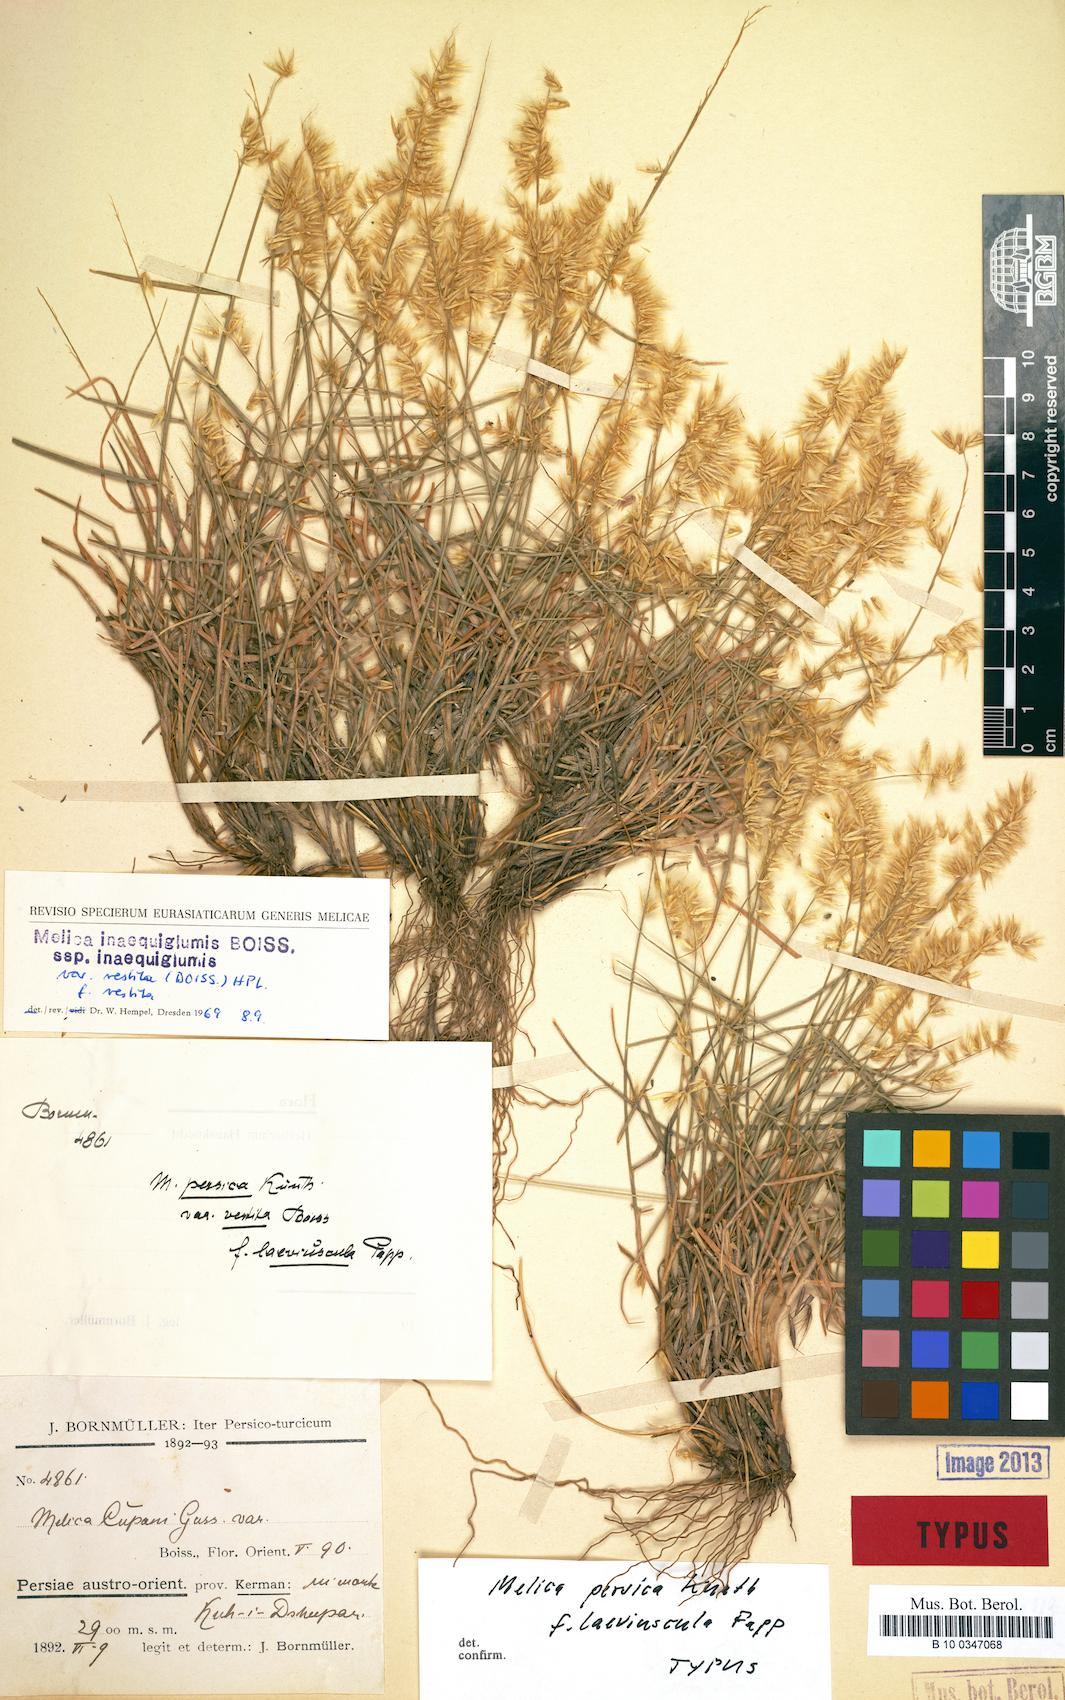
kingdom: Plantae
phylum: Tracheophyta
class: Liliopsida
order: Poales
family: Poaceae
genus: Melica
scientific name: Melica persica
